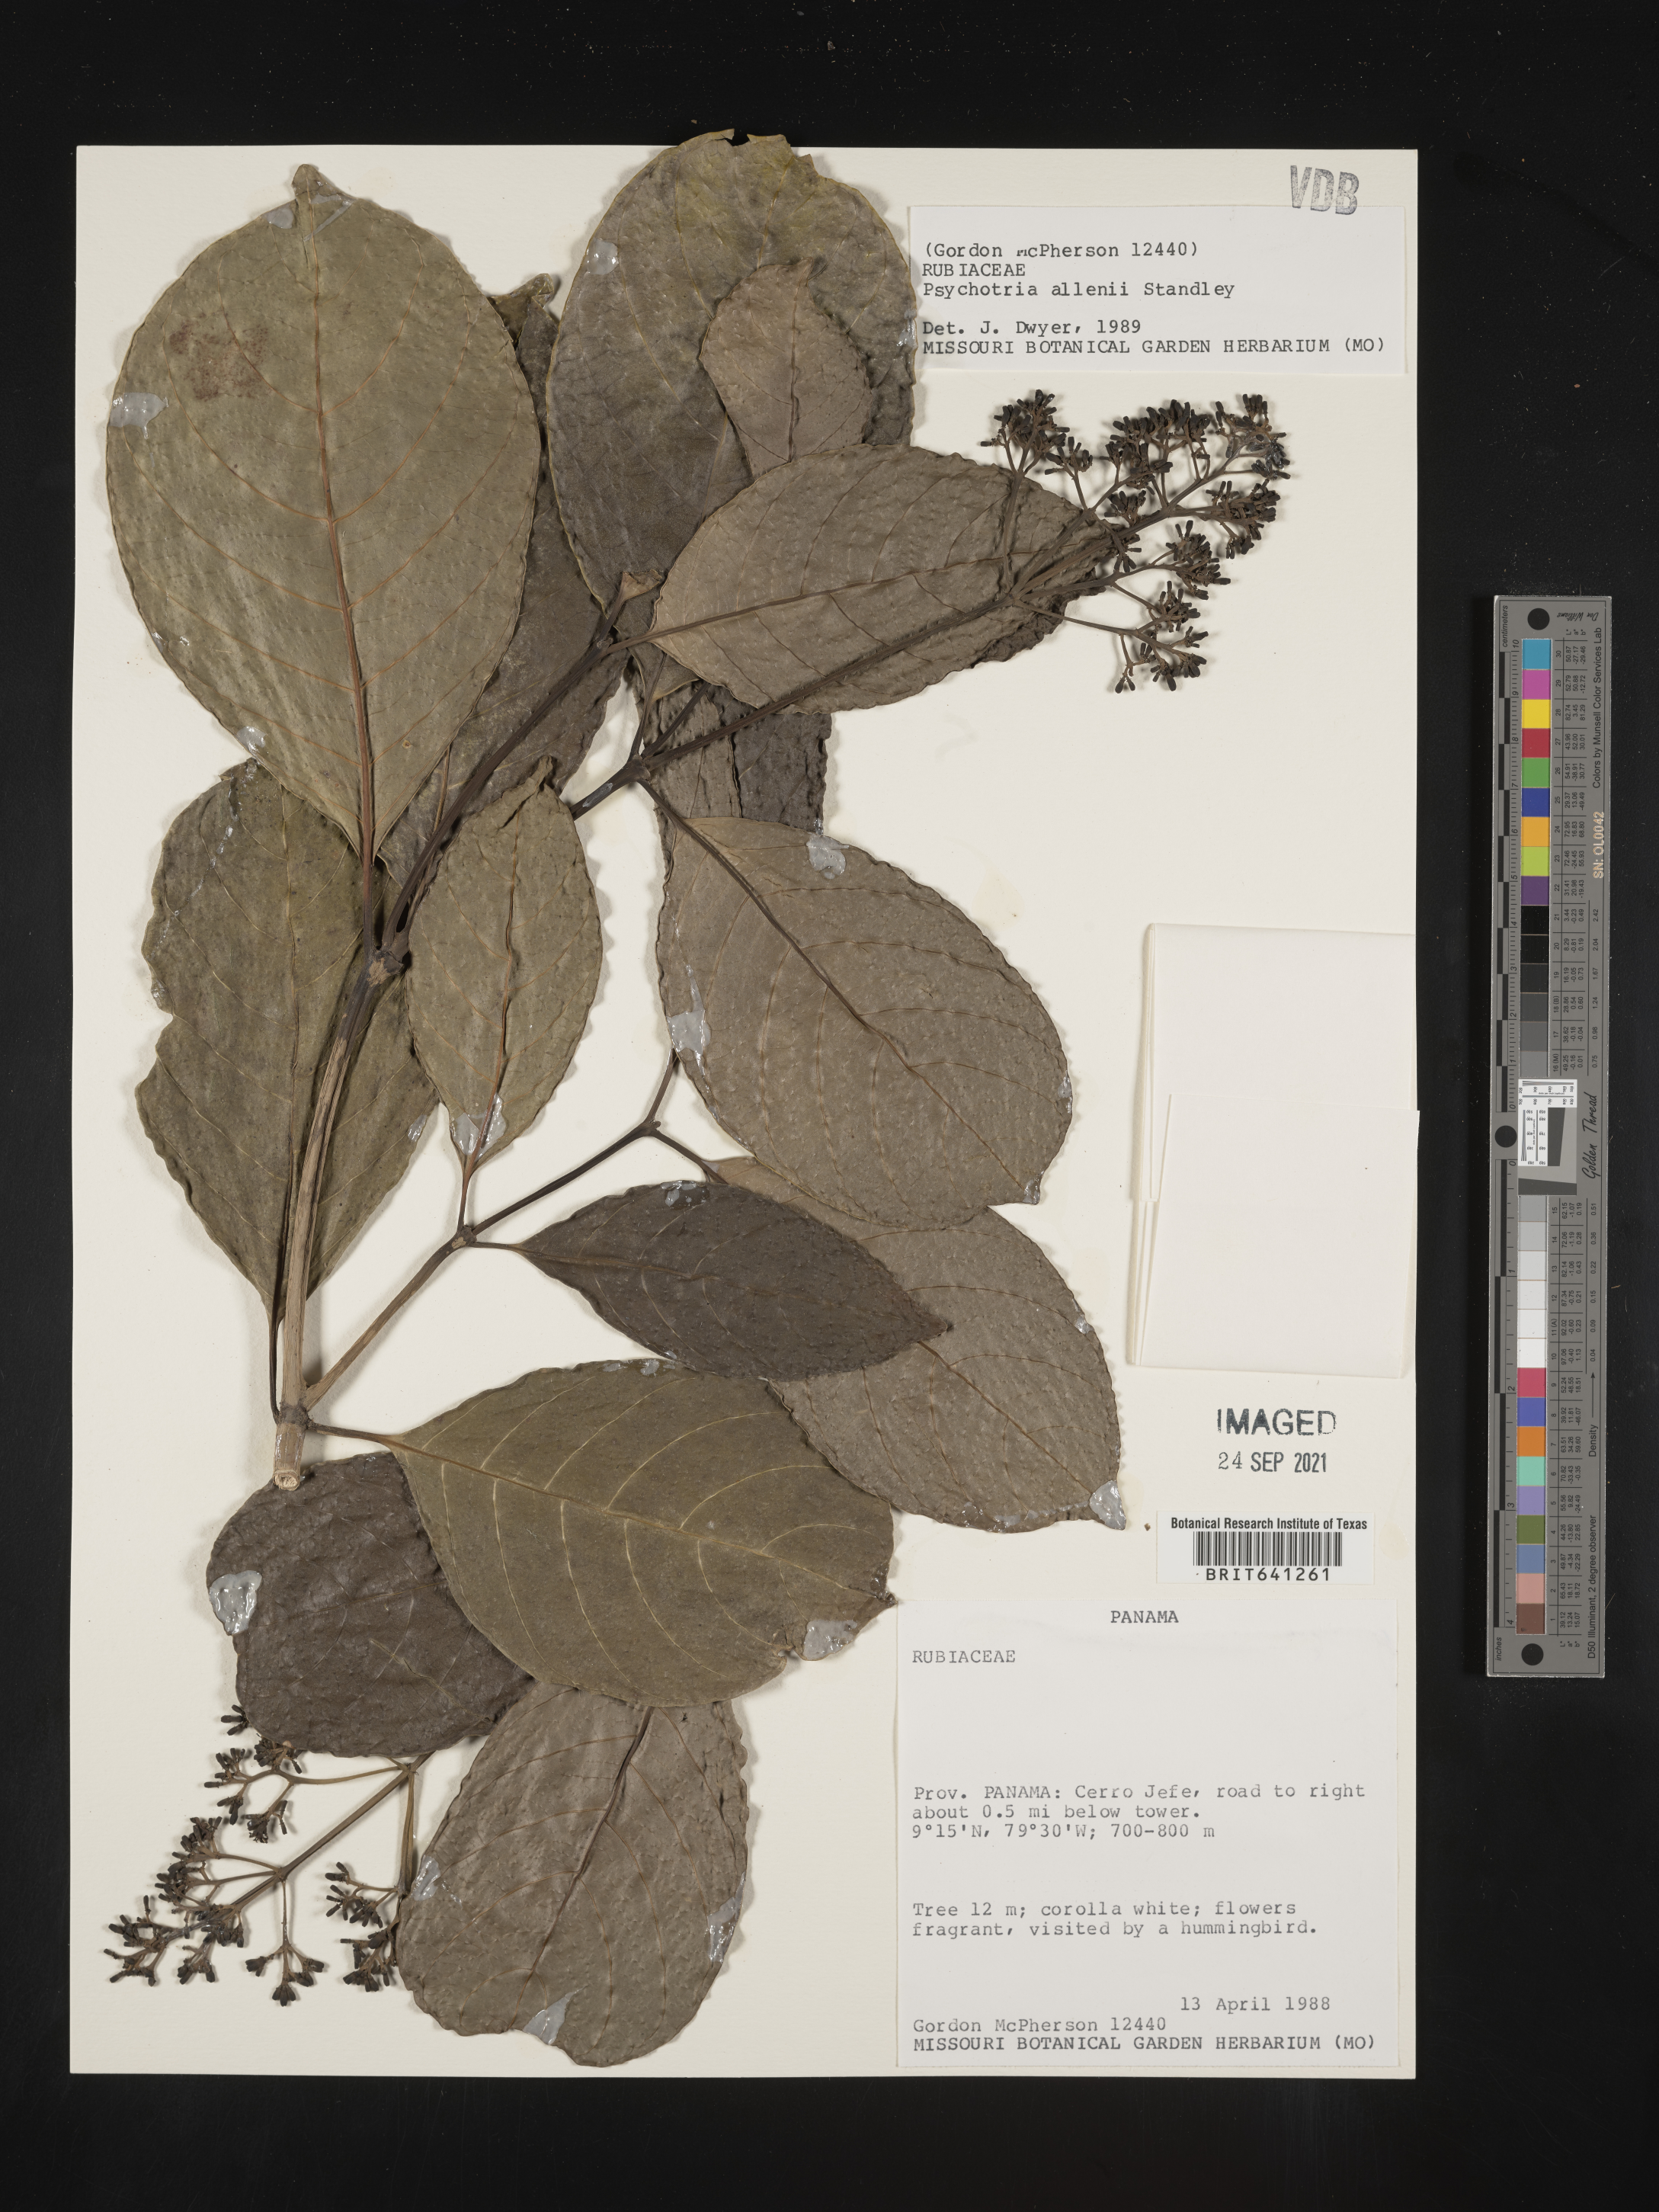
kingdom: Plantae
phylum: Tracheophyta
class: Magnoliopsida
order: Gentianales
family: Rubiaceae
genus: Psychotria
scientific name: Psychotria
